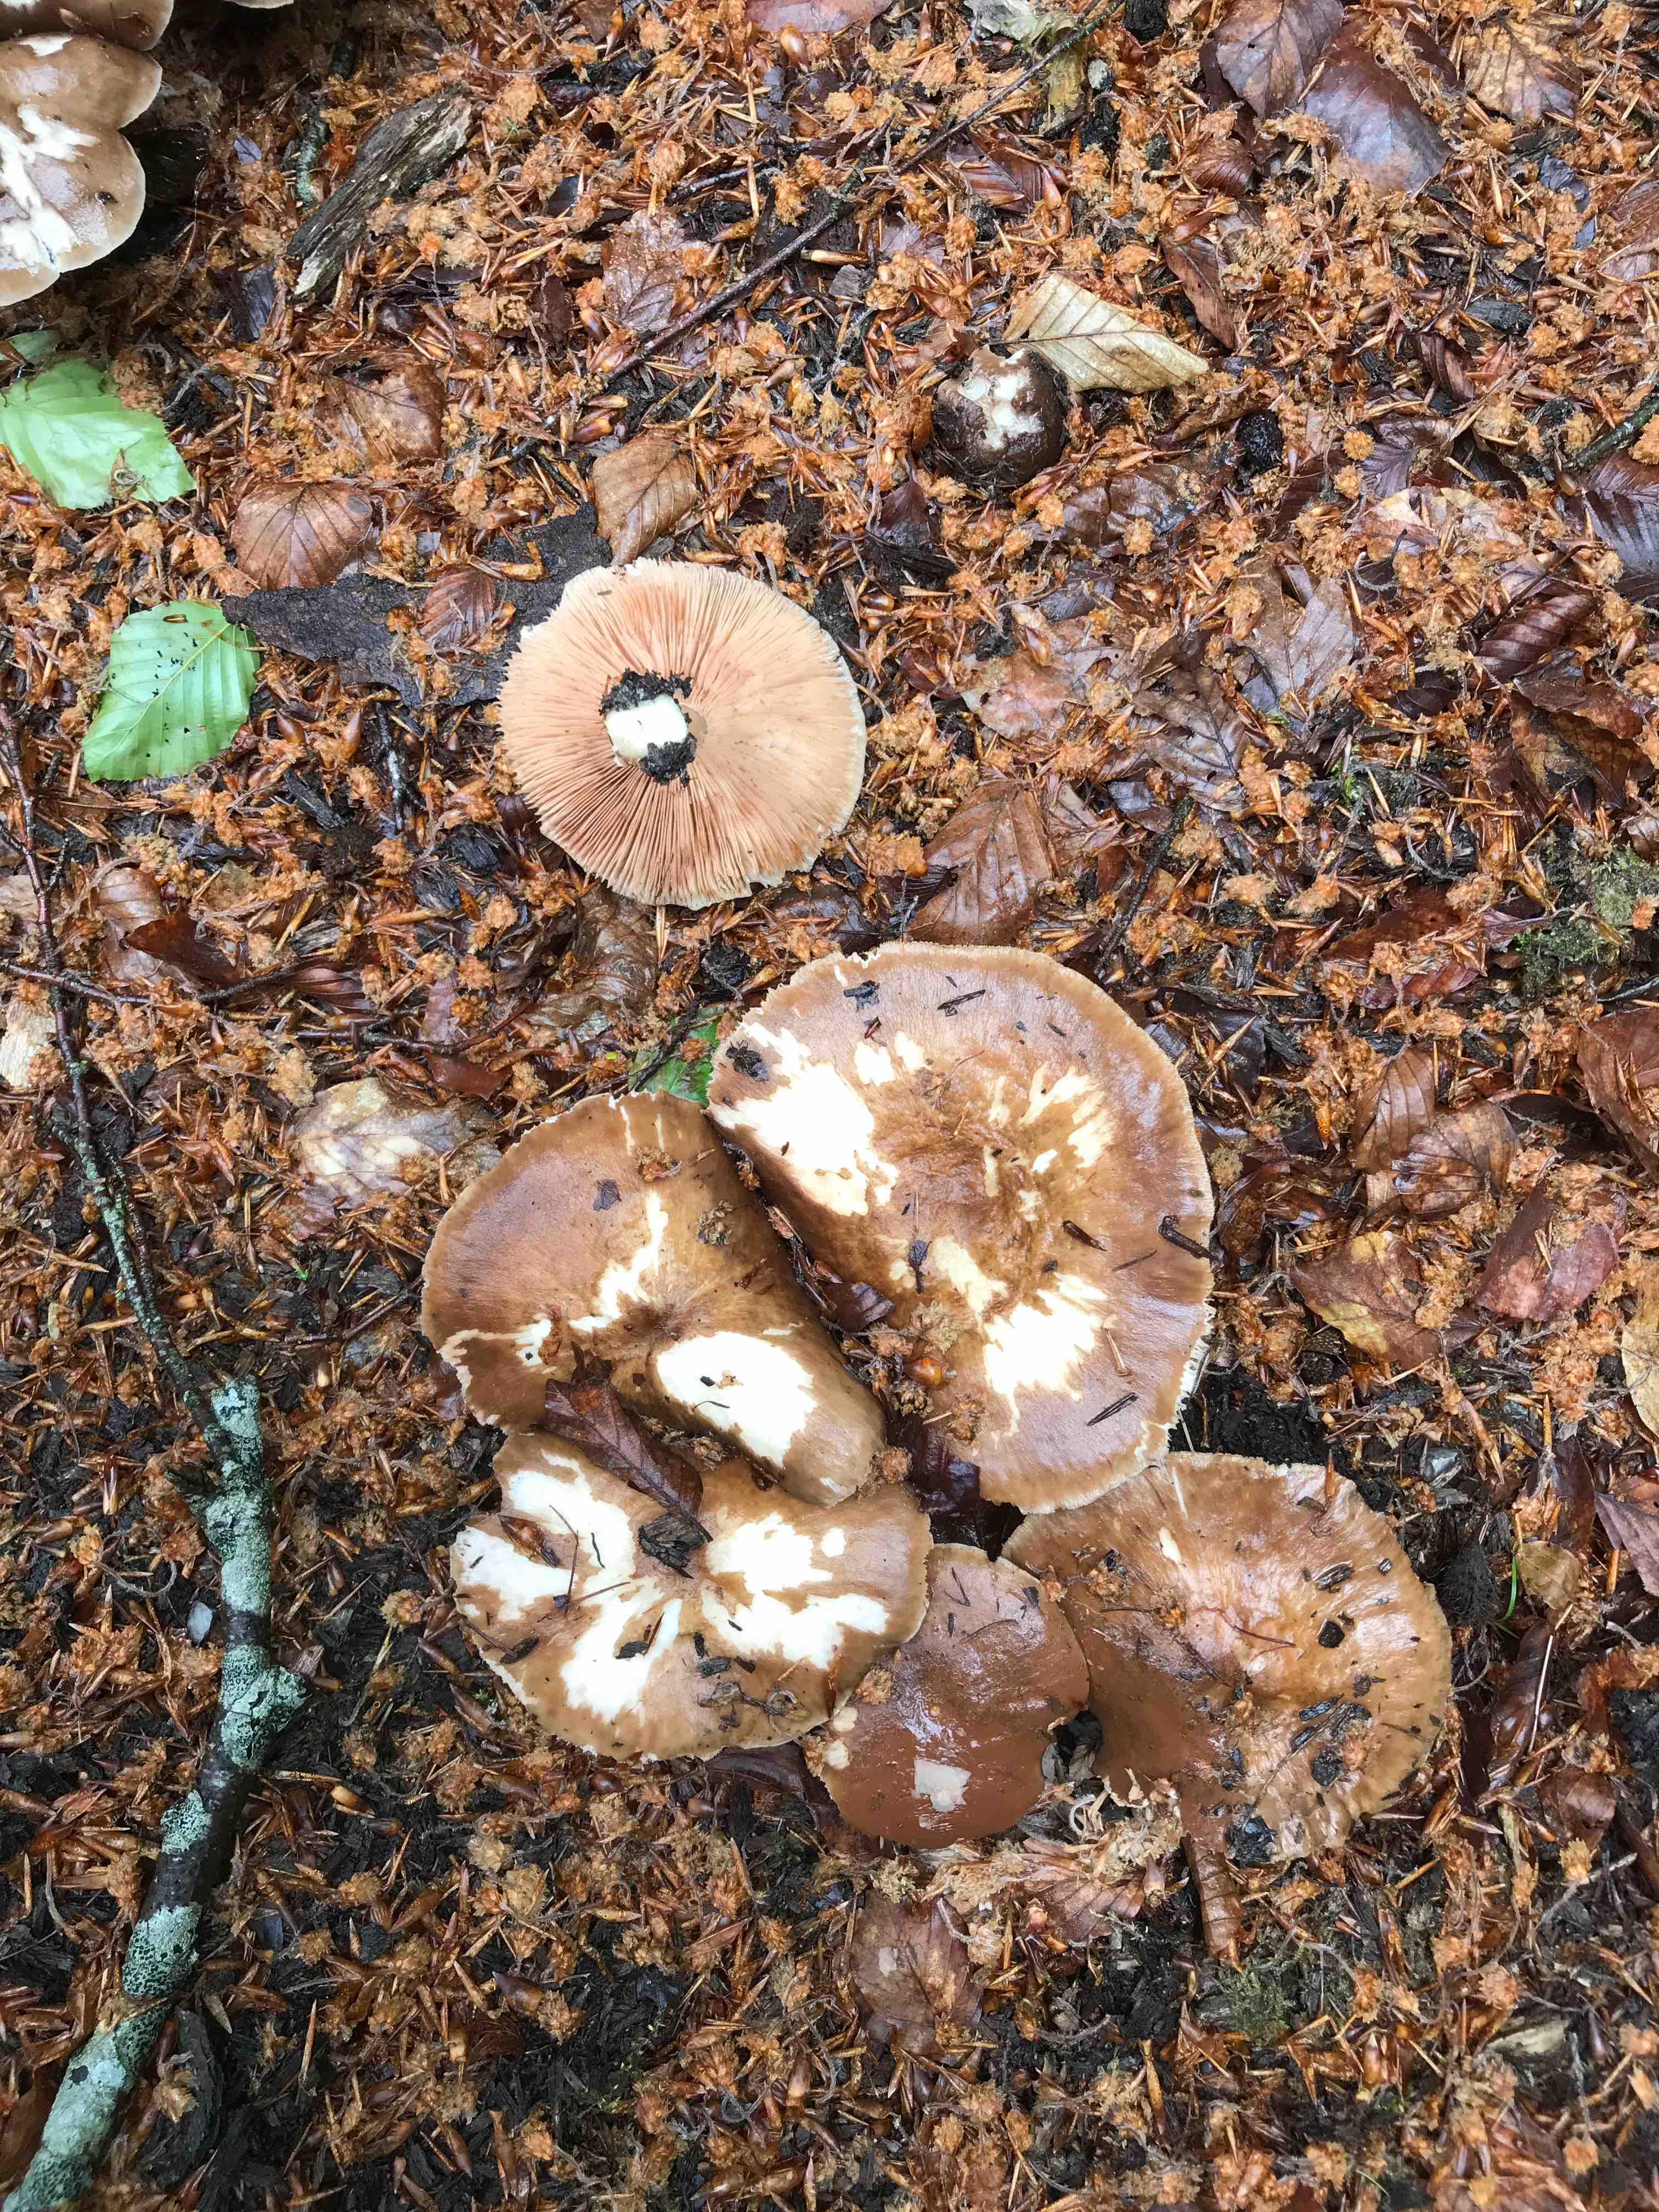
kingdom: Fungi
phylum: Basidiomycota
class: Agaricomycetes
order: Agaricales
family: Pluteaceae
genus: Pluteus
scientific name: Pluteus cervinus
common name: sodfarvet skærmhat
